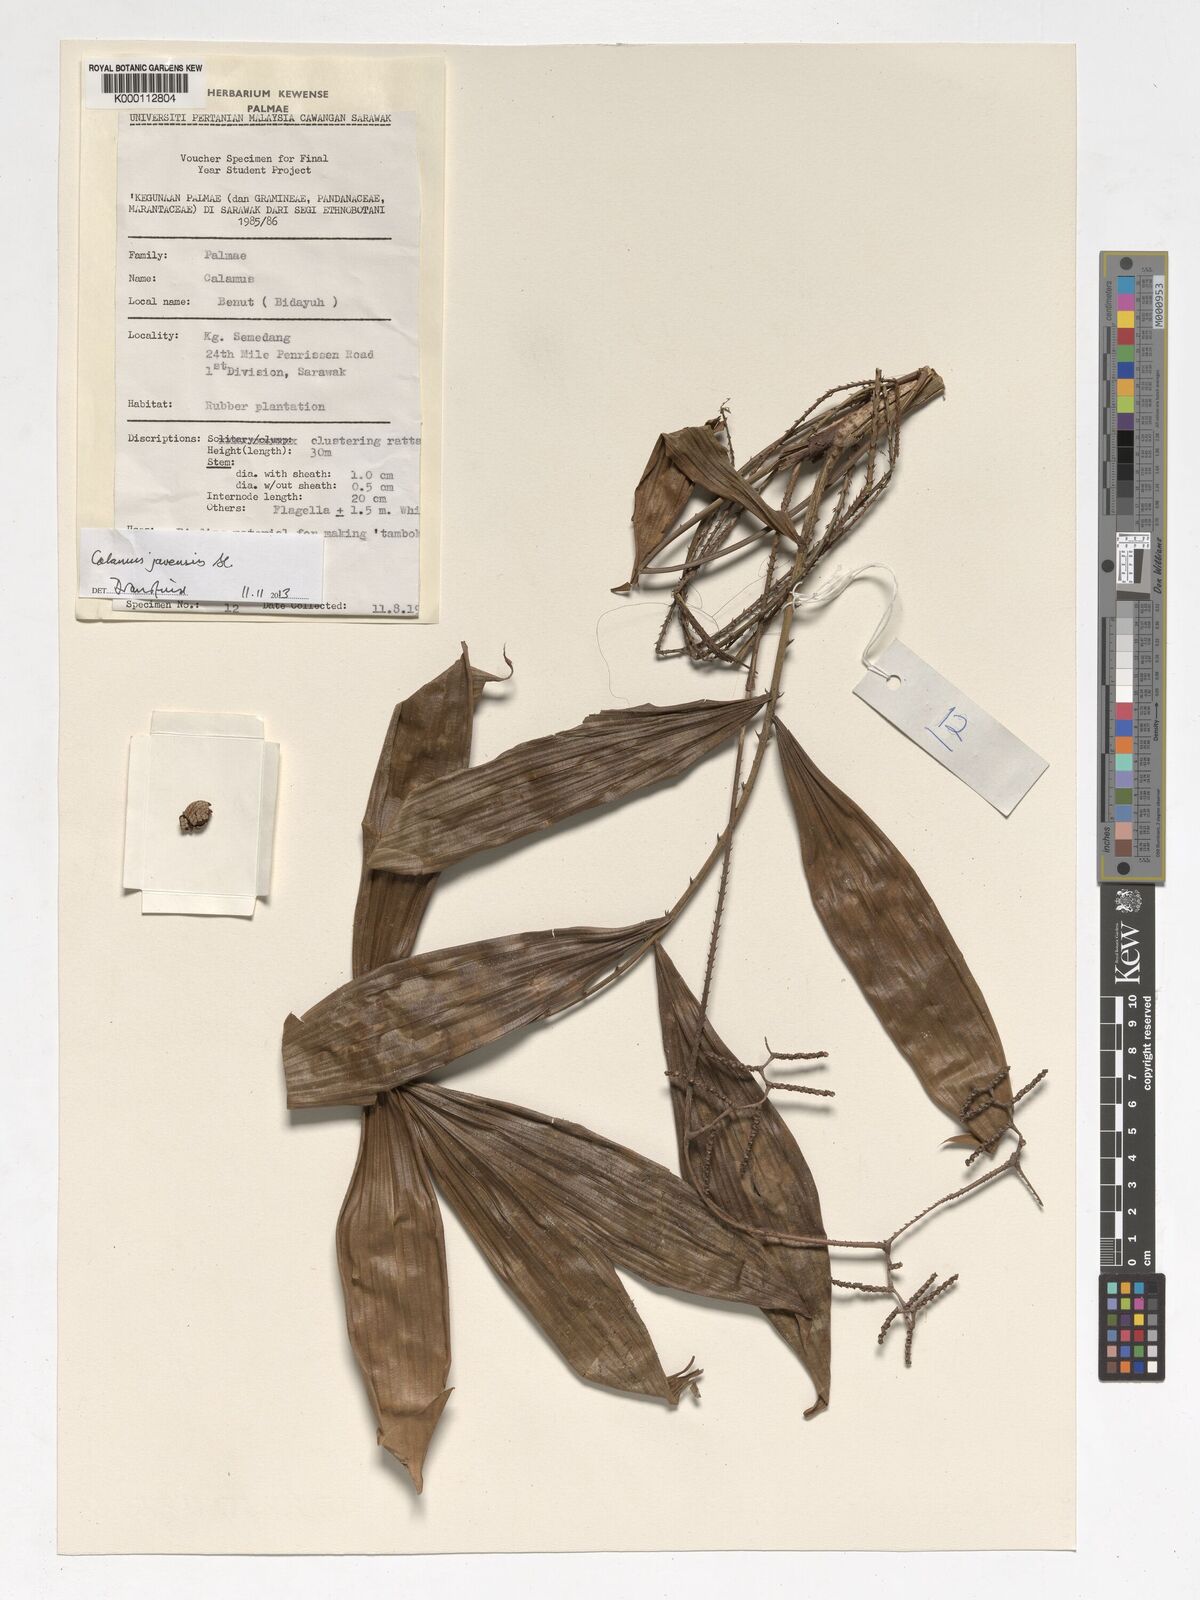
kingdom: Plantae
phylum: Tracheophyta
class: Liliopsida
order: Arecales
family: Arecaceae
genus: Calamus
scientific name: Calamus
